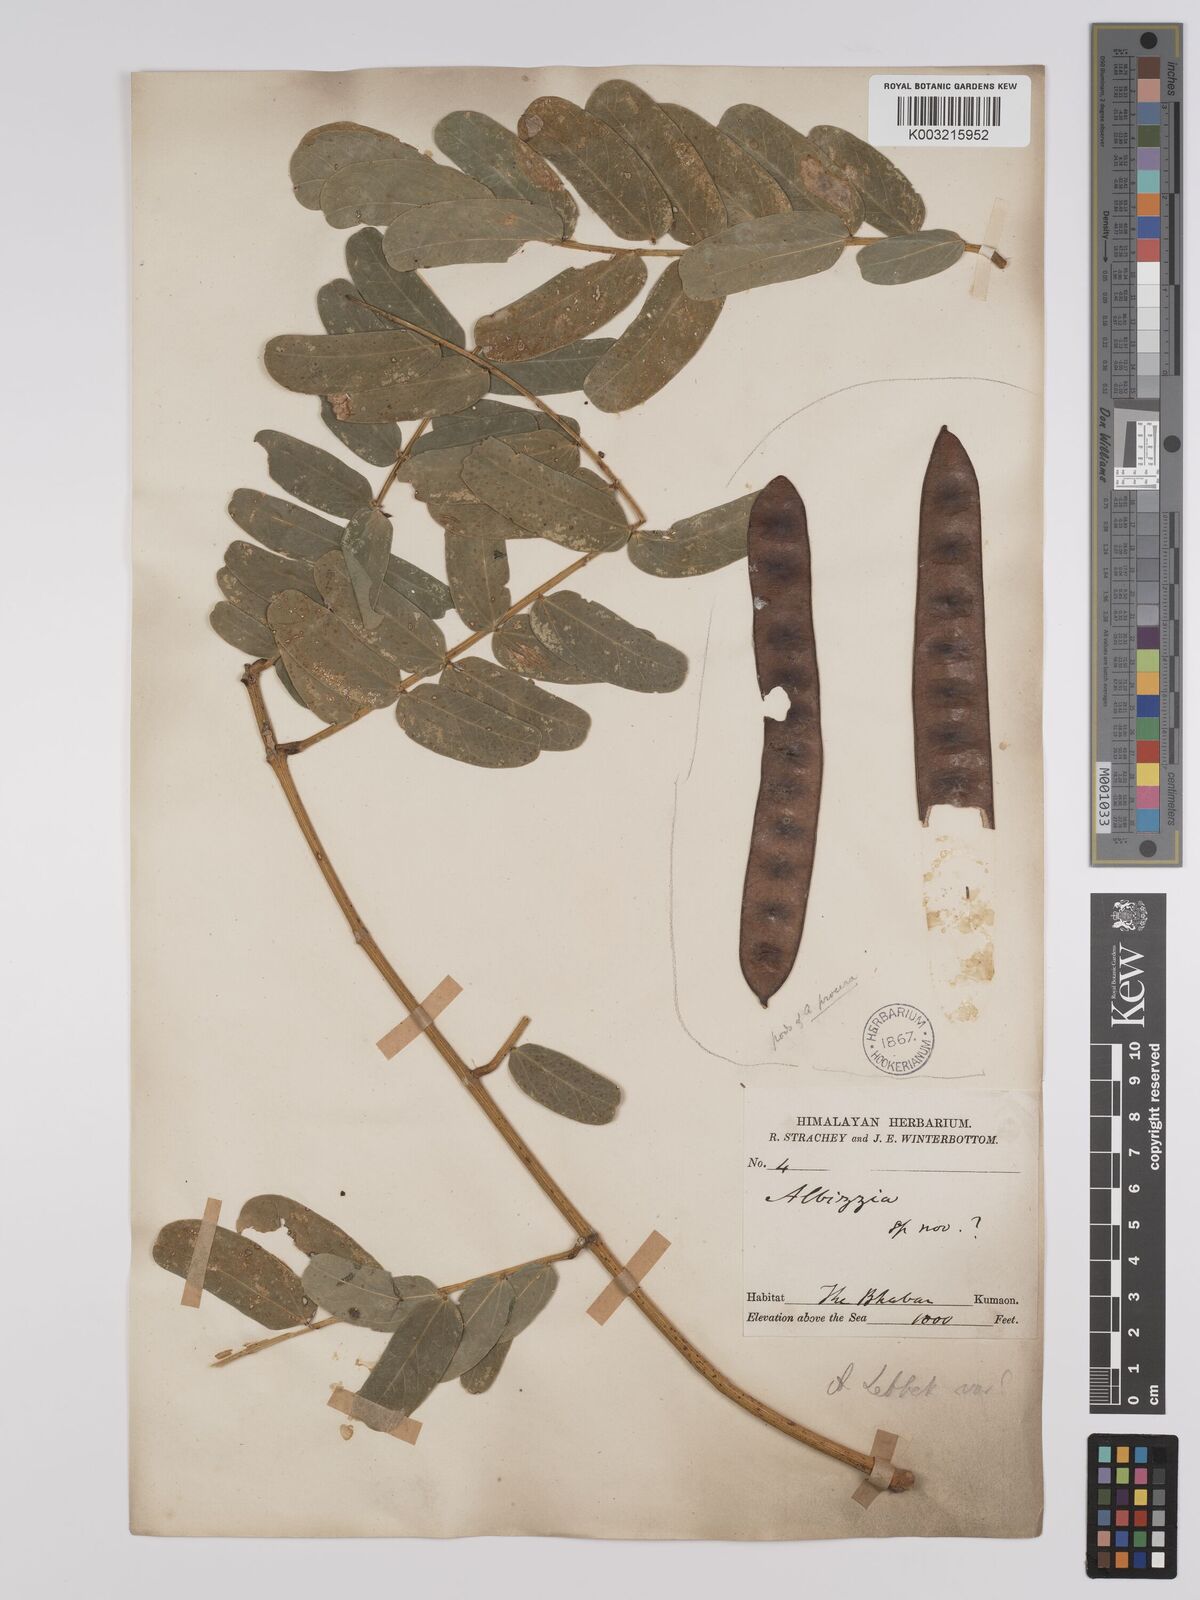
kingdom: Plantae
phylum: Tracheophyta
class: Magnoliopsida
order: Fabales
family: Fabaceae
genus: Albizia
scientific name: Albizia lebbeck
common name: Woman's tongue
